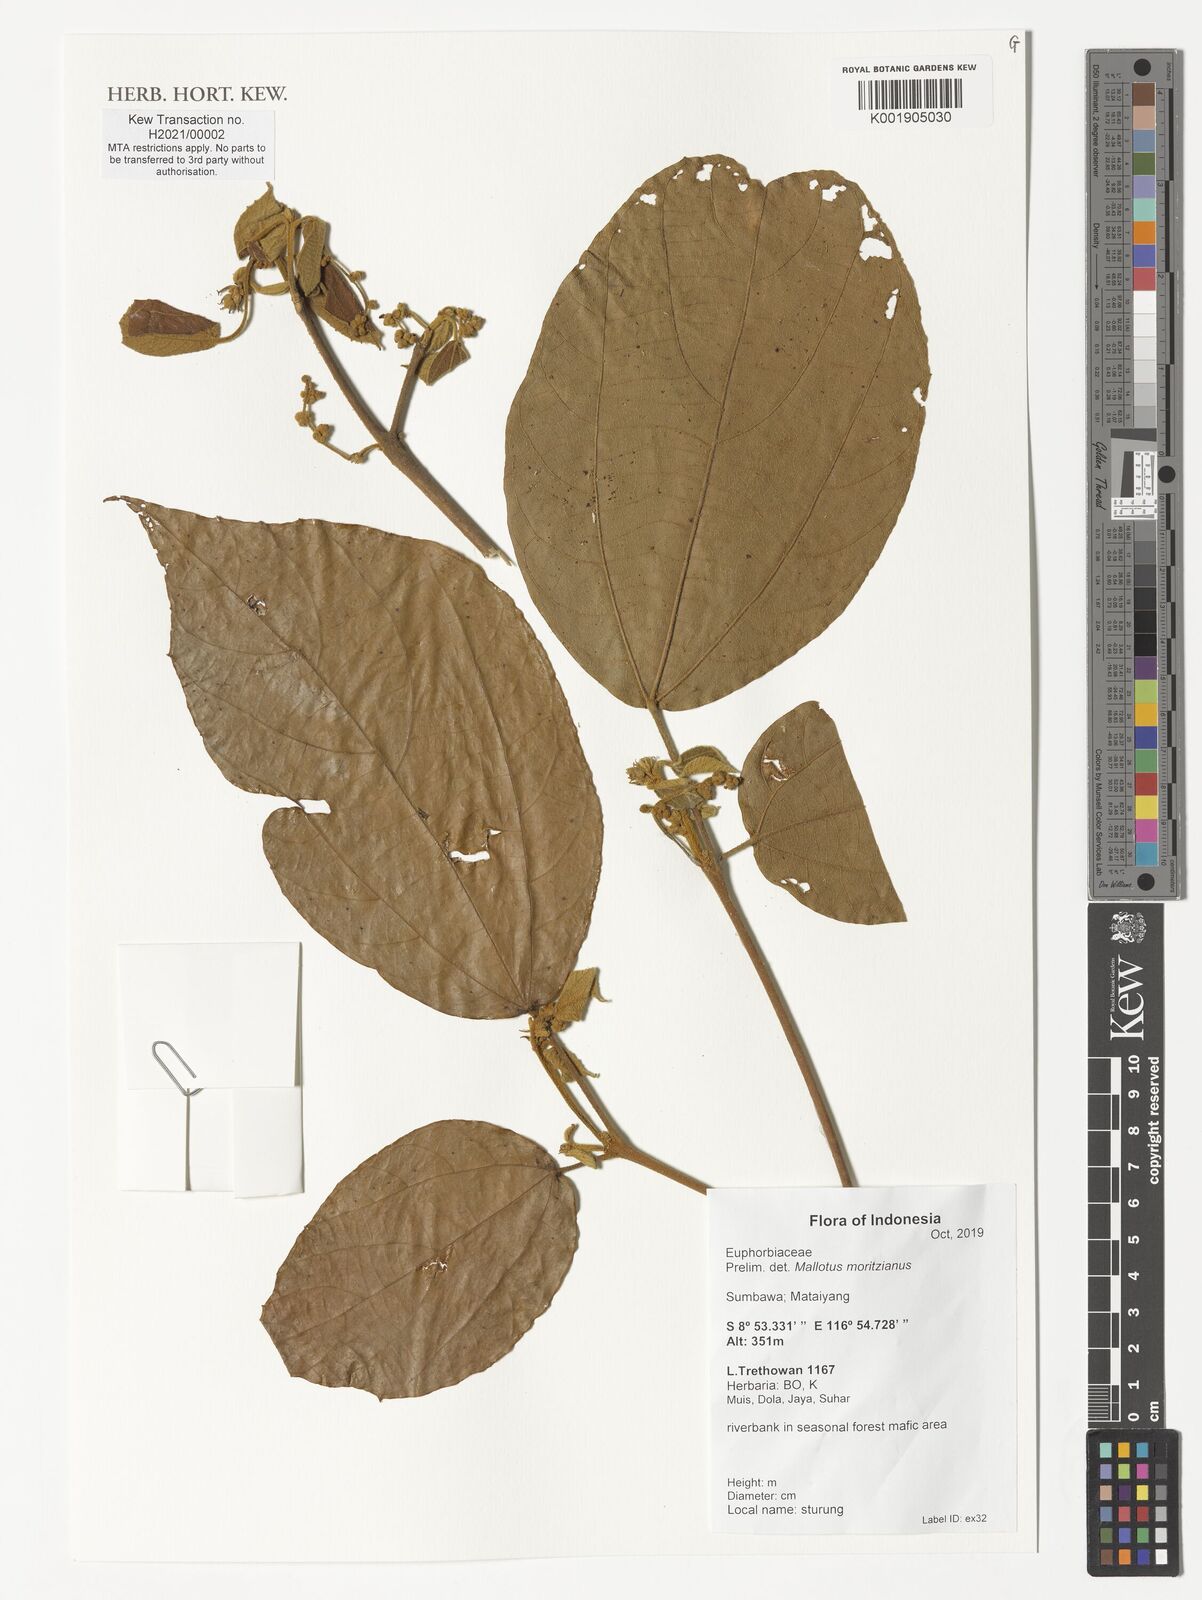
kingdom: Plantae
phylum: Tracheophyta
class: Magnoliopsida
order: Malpighiales
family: Euphorbiaceae
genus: Mallotus
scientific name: Mallotus rufidulus
